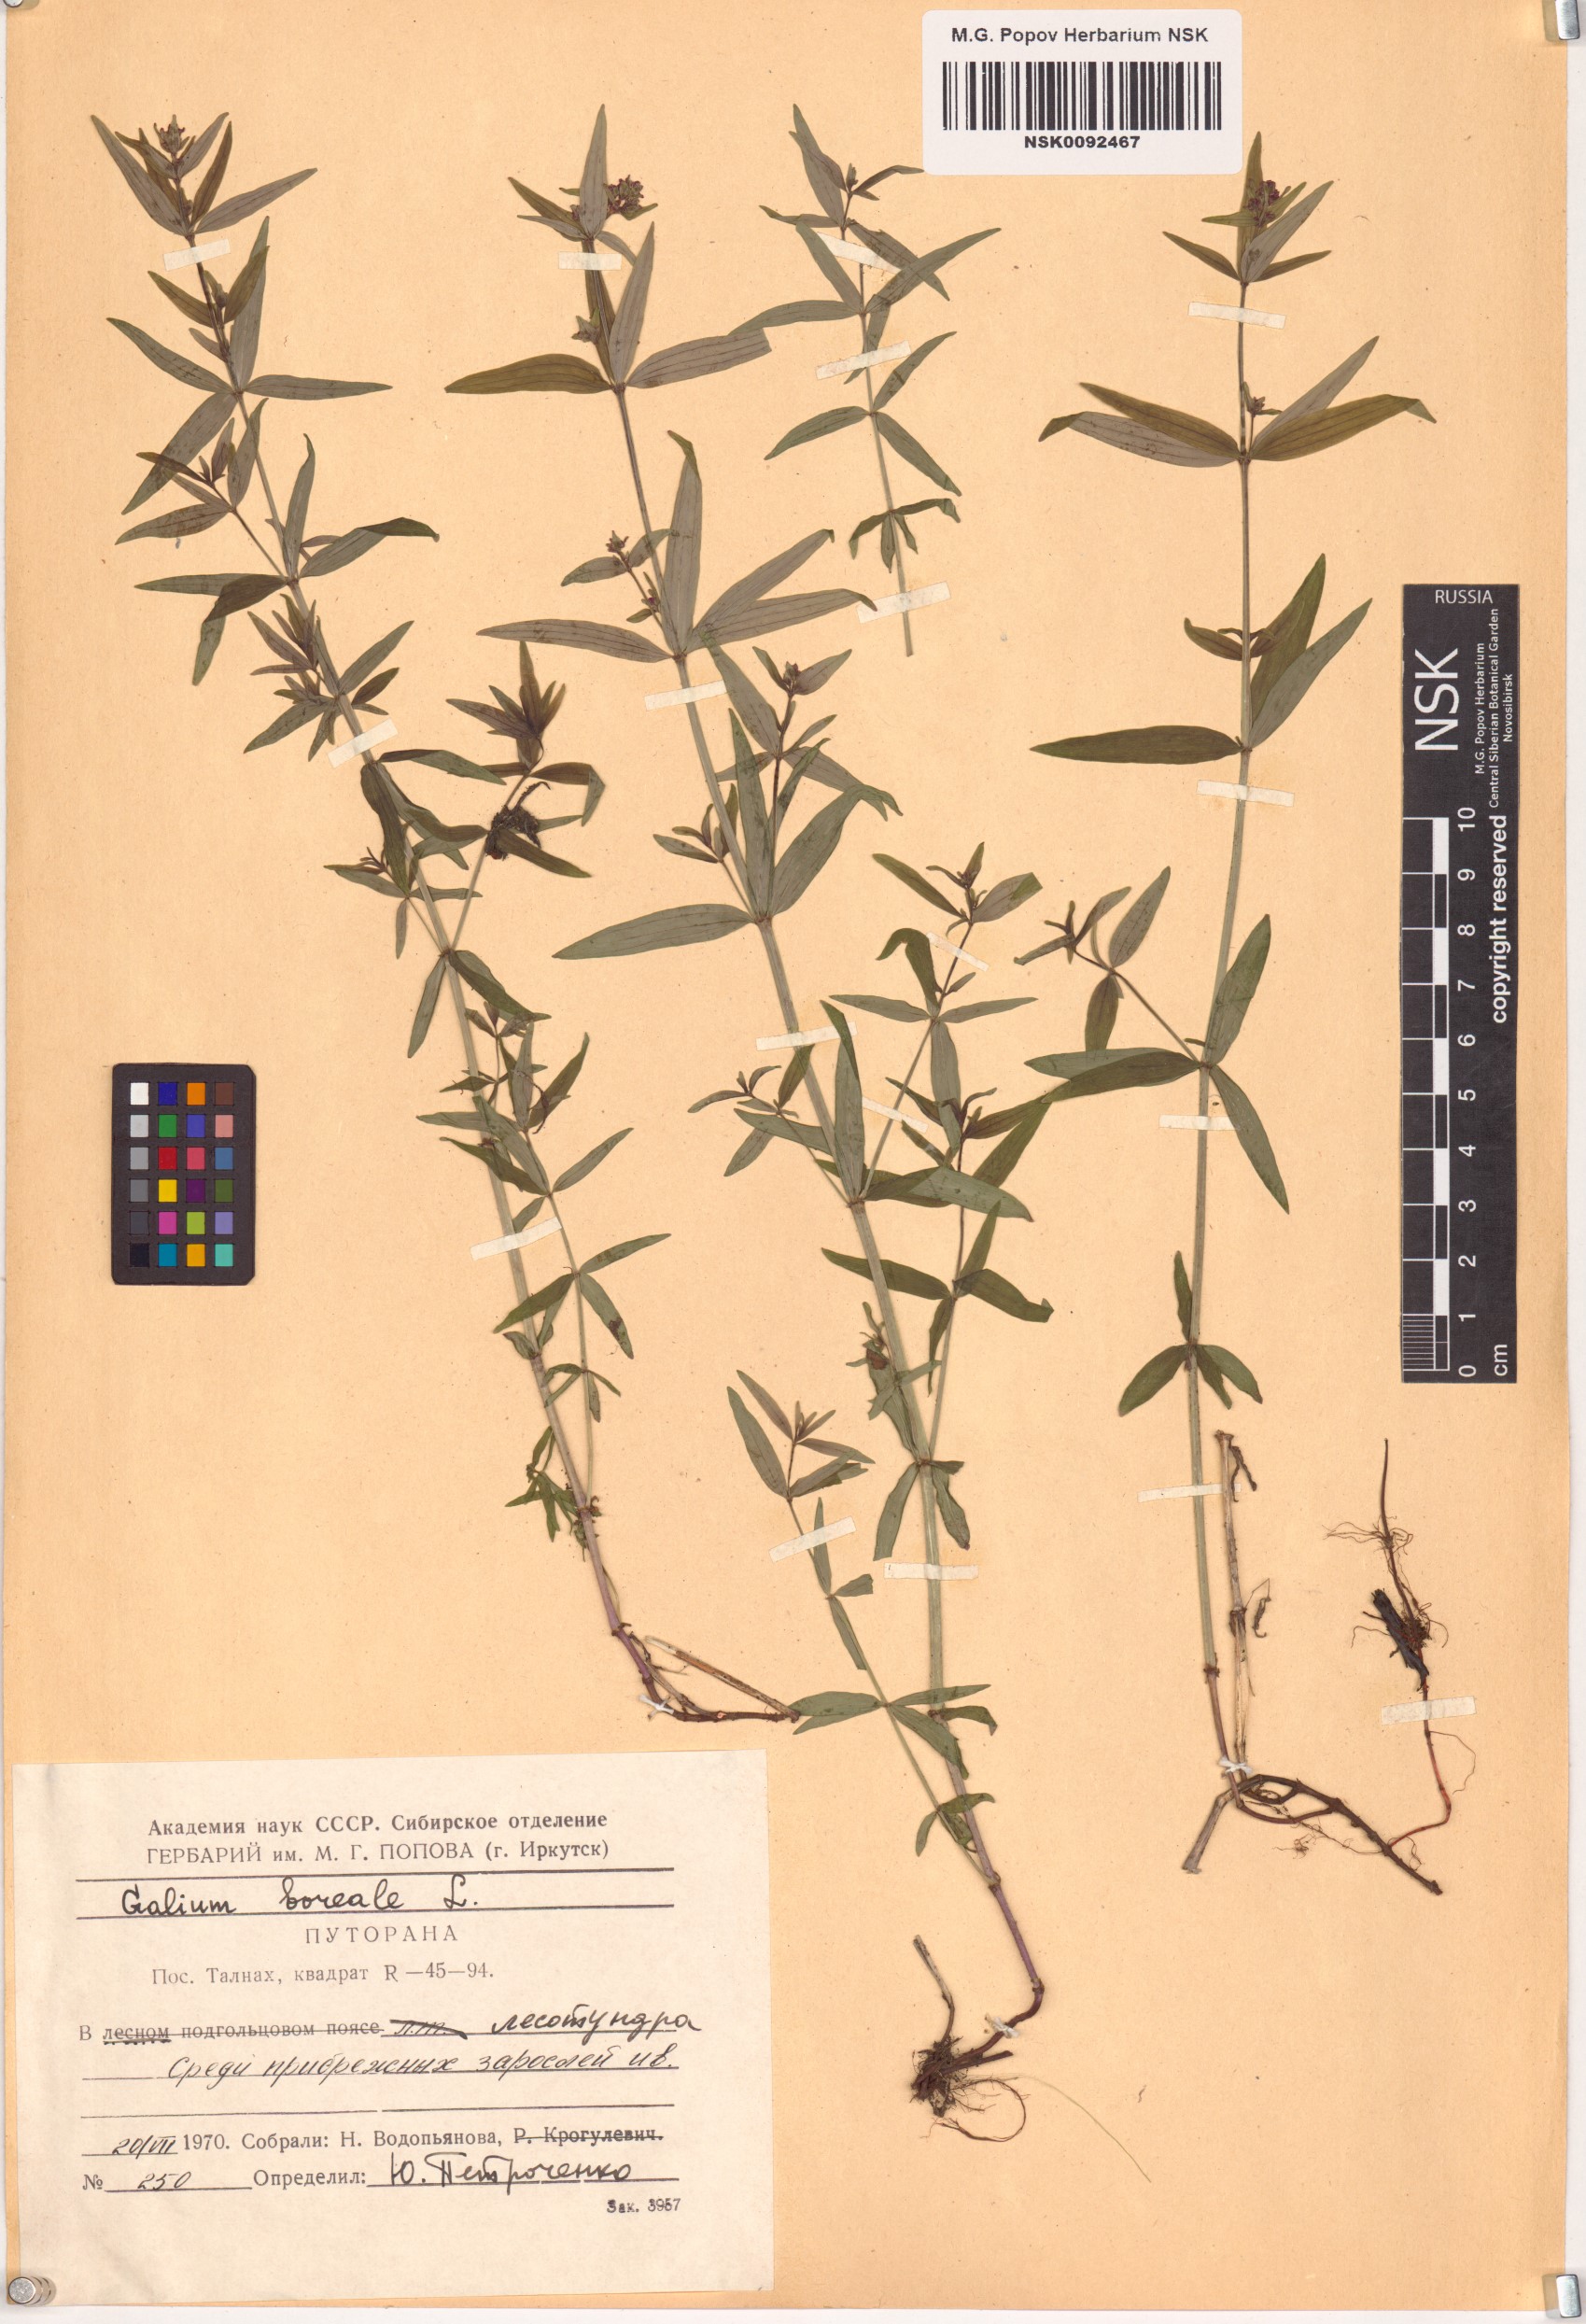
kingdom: Plantae
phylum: Tracheophyta
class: Magnoliopsida
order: Gentianales
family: Rubiaceae
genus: Galium
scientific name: Galium boreale
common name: Northern bedstraw
